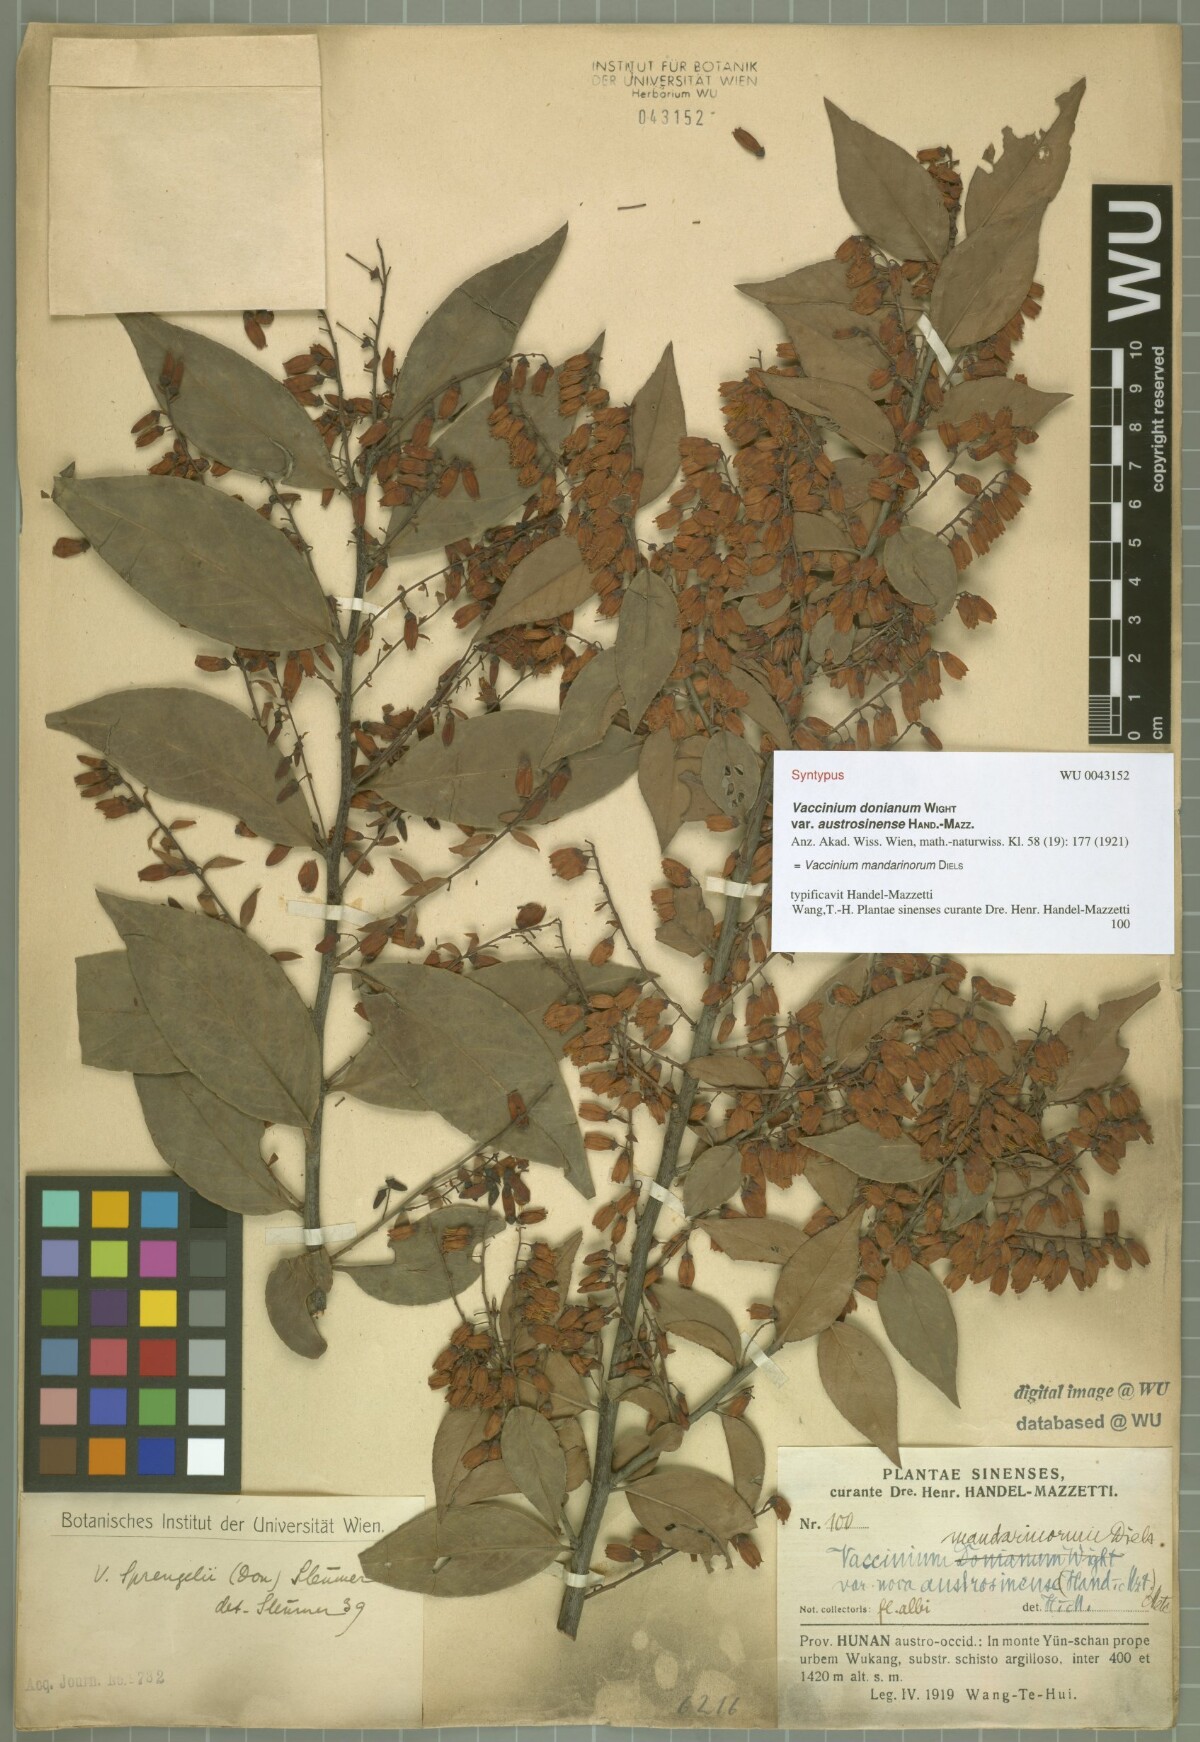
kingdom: Plantae
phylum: Tracheophyta
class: Magnoliopsida
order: Ericales
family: Ericaceae
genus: Vaccinium
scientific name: Vaccinium mandarinorum
